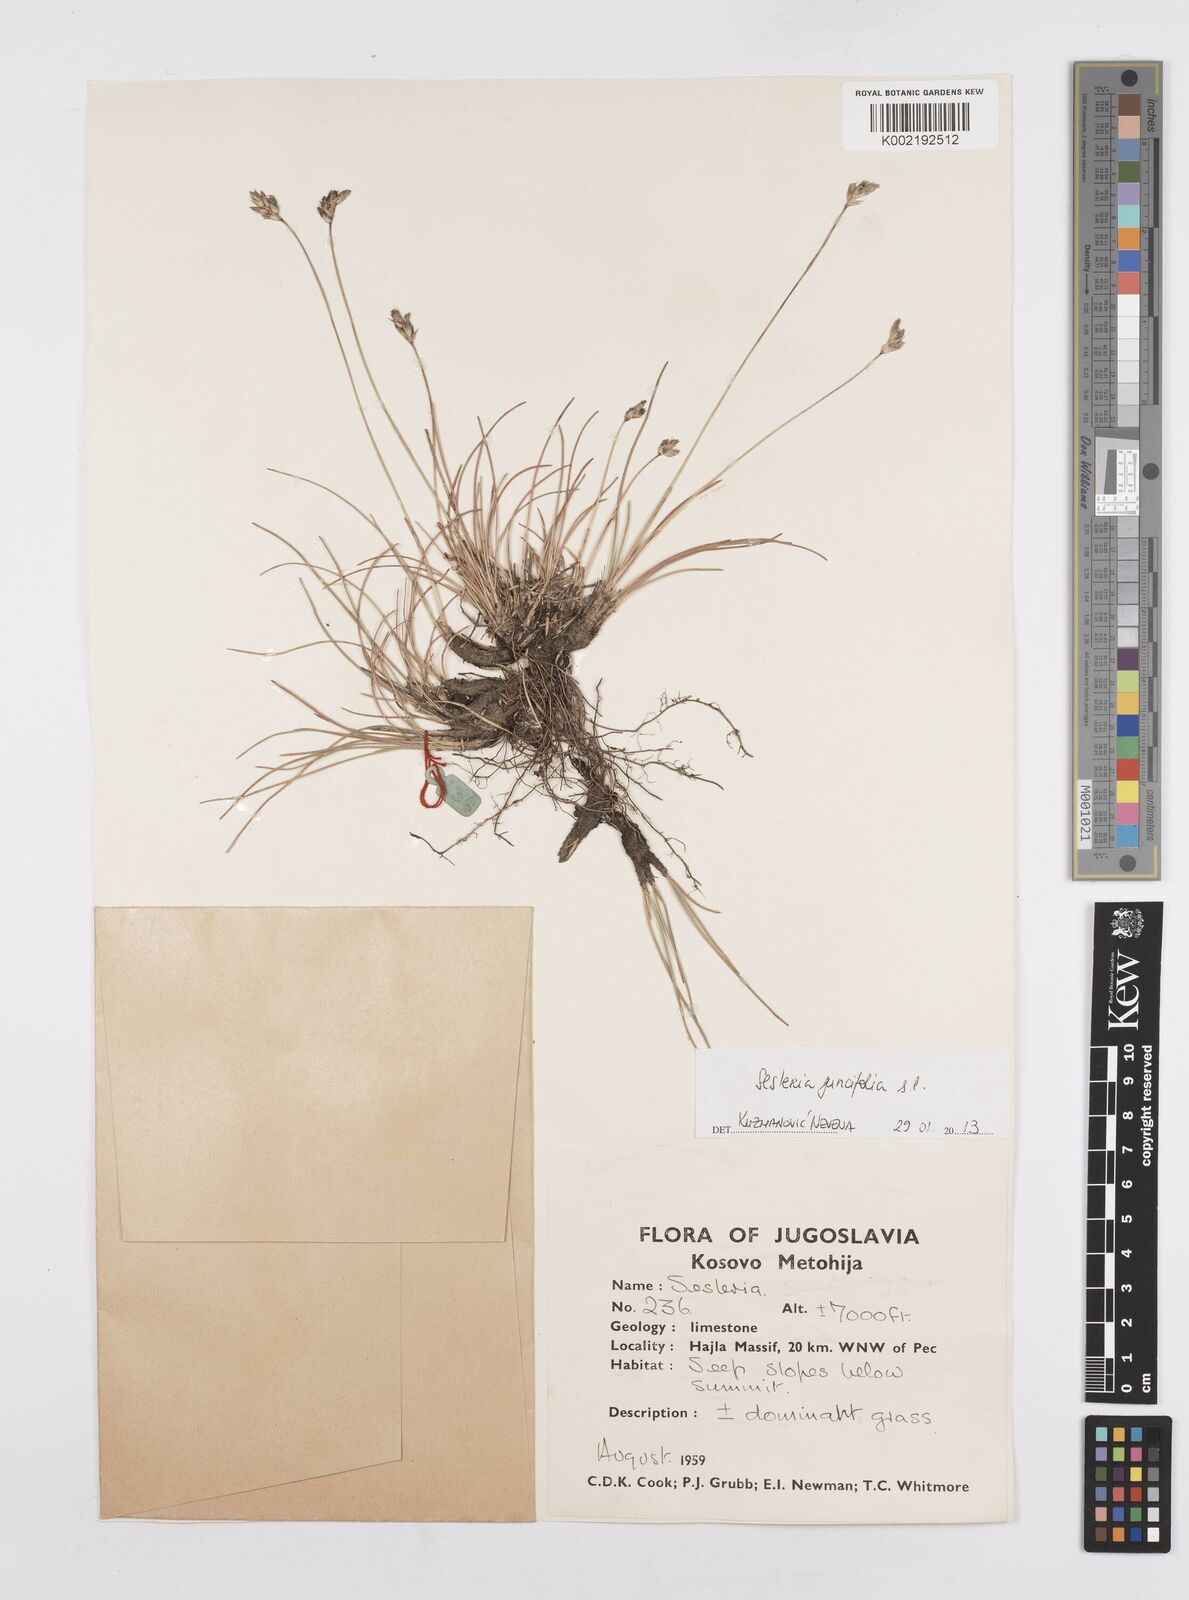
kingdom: Plantae
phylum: Tracheophyta
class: Liliopsida
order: Poales
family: Poaceae
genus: Sesleria
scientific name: Sesleria juncifolia
